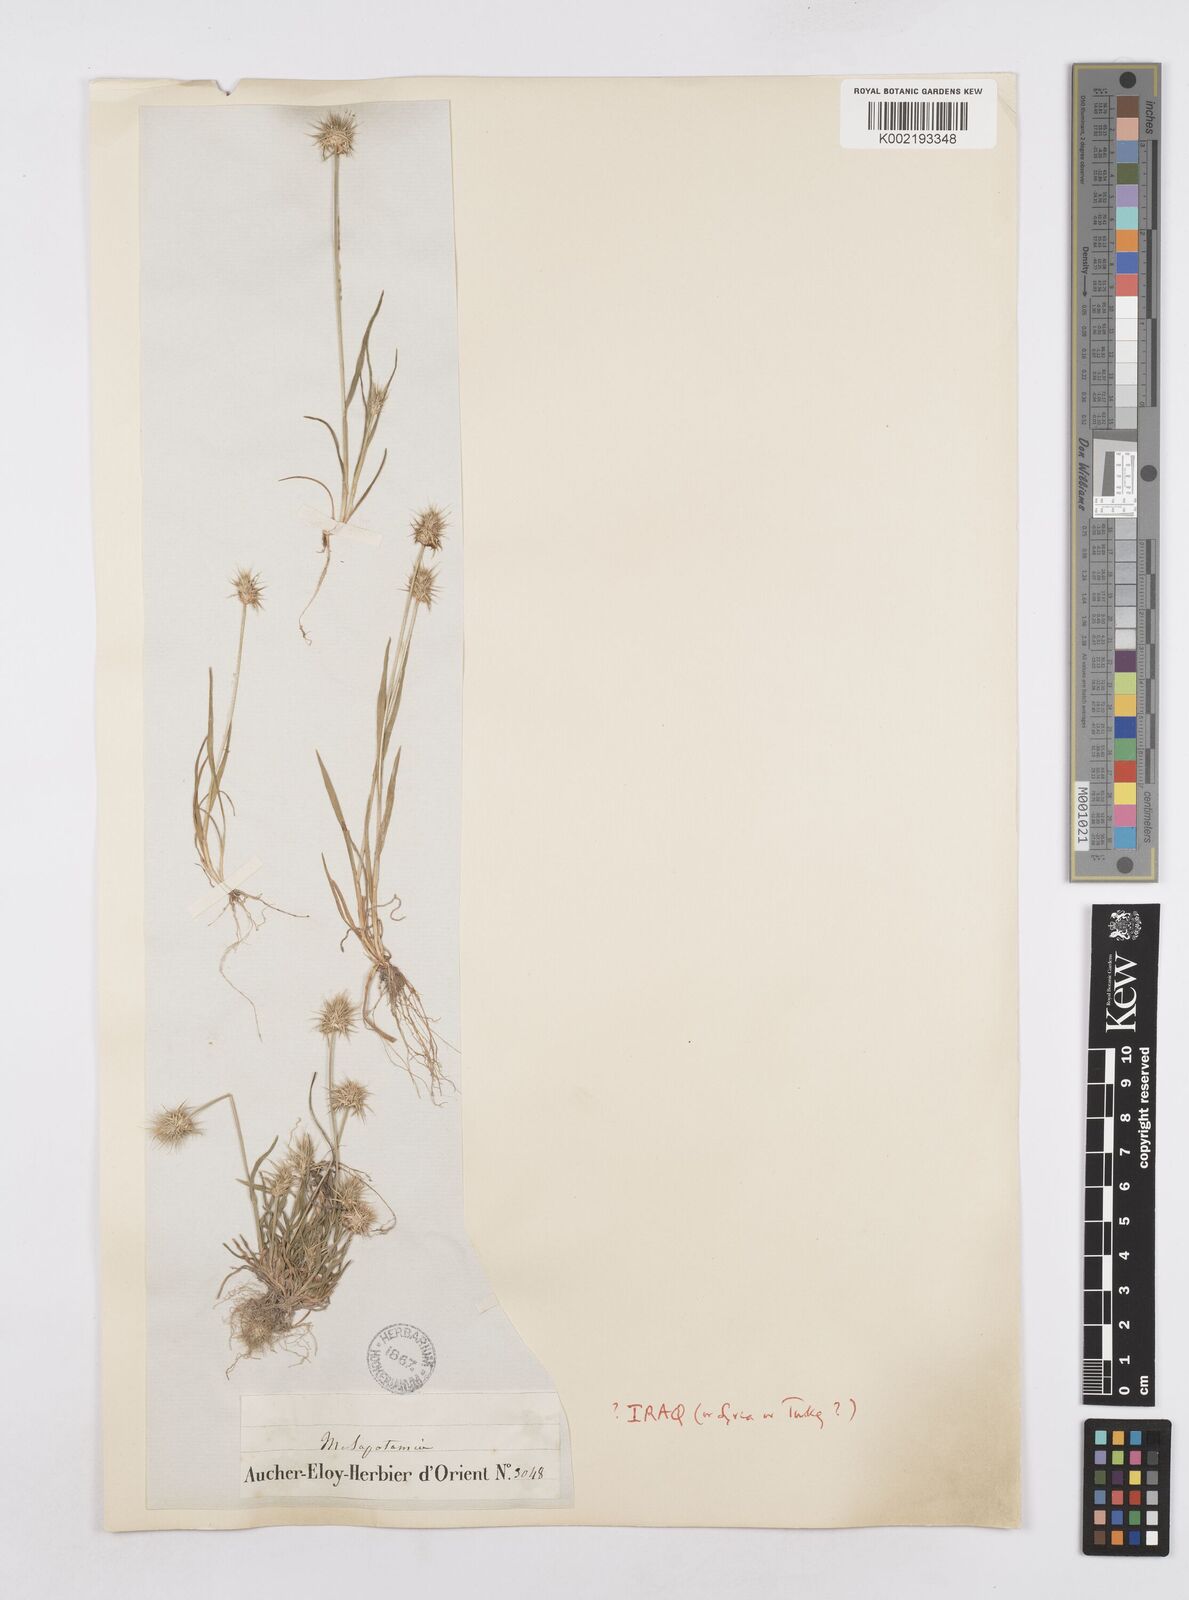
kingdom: Plantae
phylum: Tracheophyta
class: Liliopsida
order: Poales
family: Poaceae
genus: Echinaria
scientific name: Echinaria capitata
